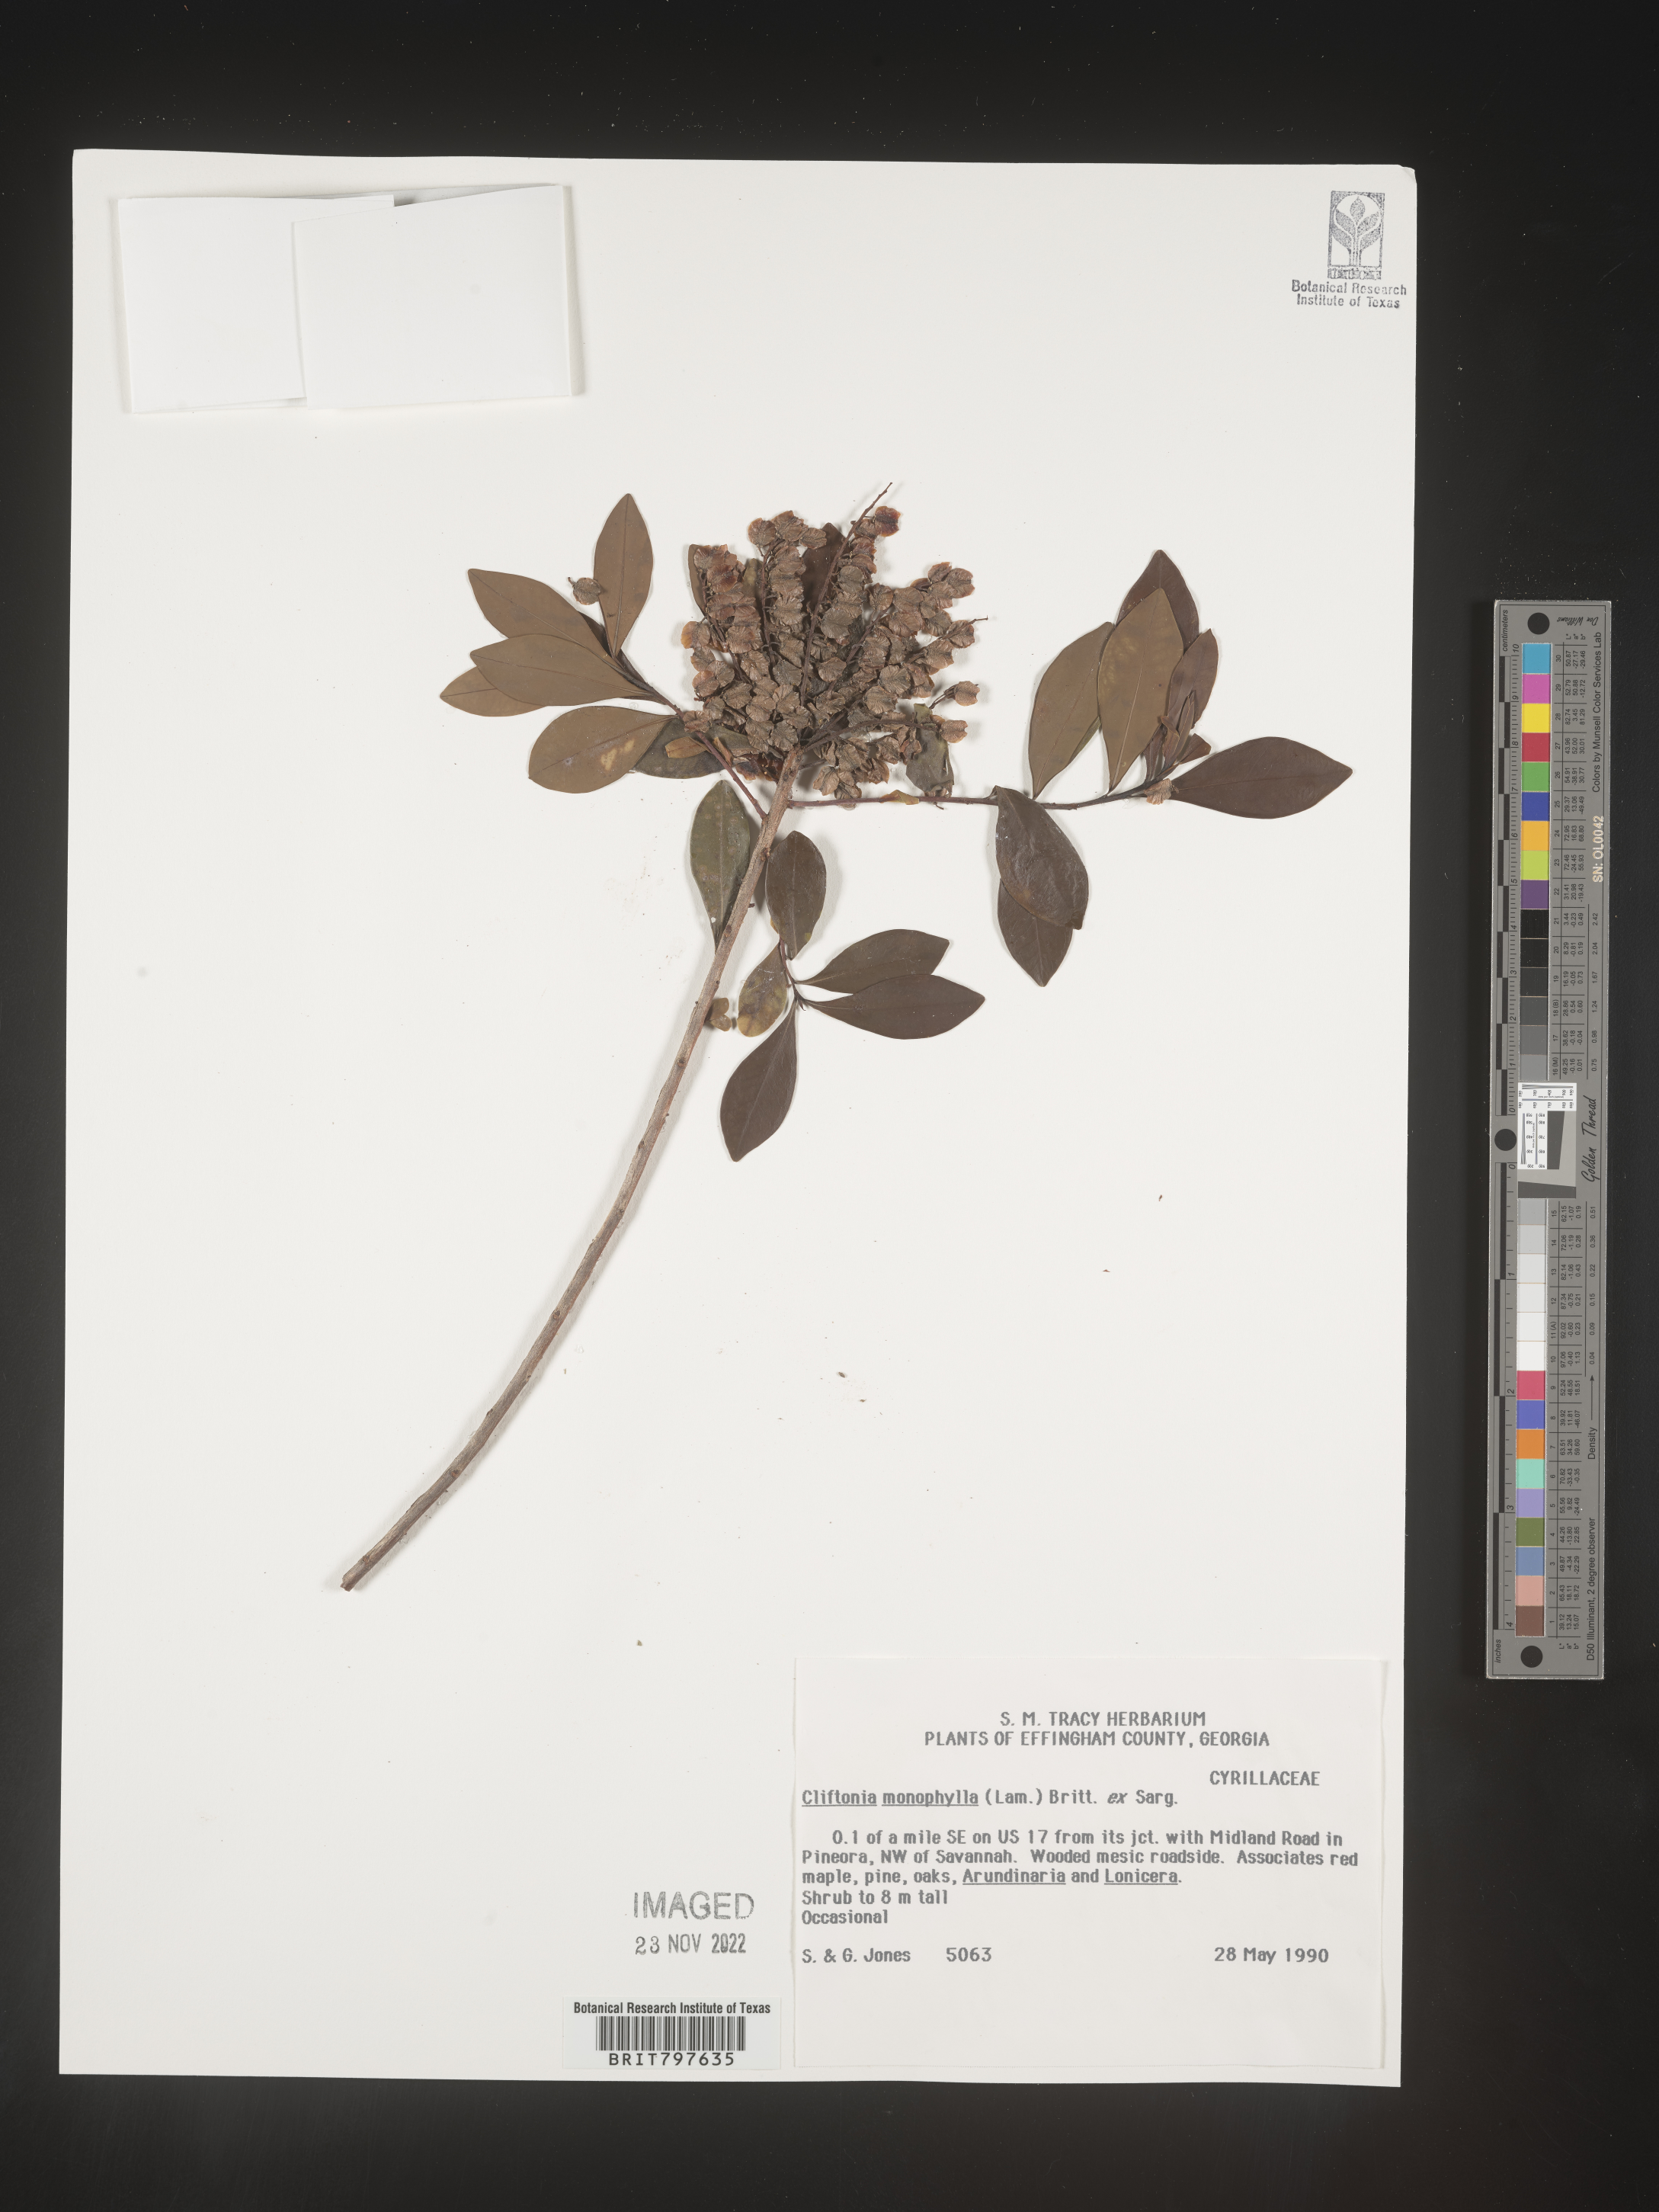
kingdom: Plantae
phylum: Tracheophyta
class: Magnoliopsida
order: Ericales
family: Cyrillaceae
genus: Cliftonia
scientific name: Cliftonia monophylla
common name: Titi
